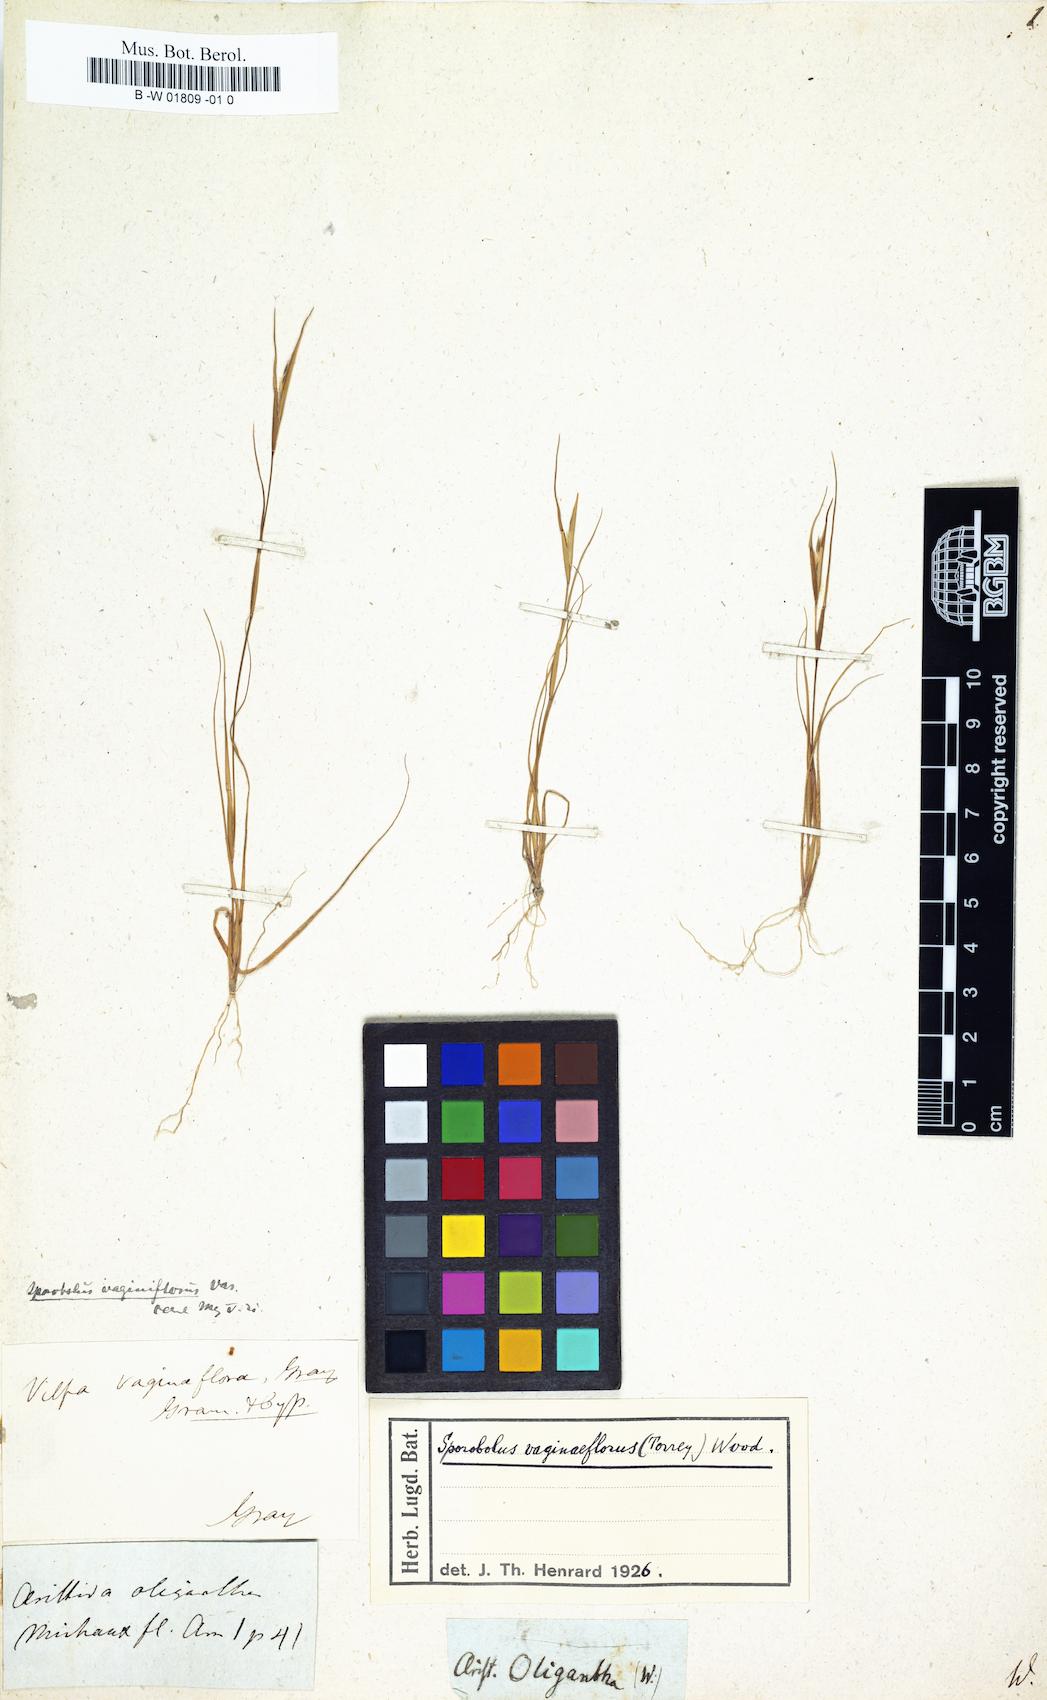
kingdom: Plantae
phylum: Tracheophyta
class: Liliopsida
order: Poales
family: Poaceae
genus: Aristida
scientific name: Aristida oligantha
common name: Few-flowered aristida
